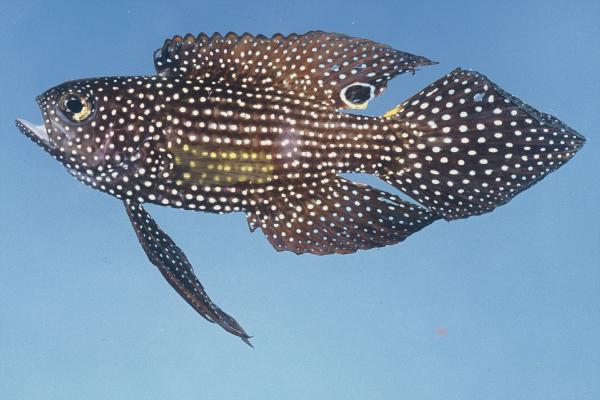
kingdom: Animalia
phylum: Chordata
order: Perciformes
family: Plesiopidae
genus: Calloplesiops
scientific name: Calloplesiops altivelis
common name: Comet
